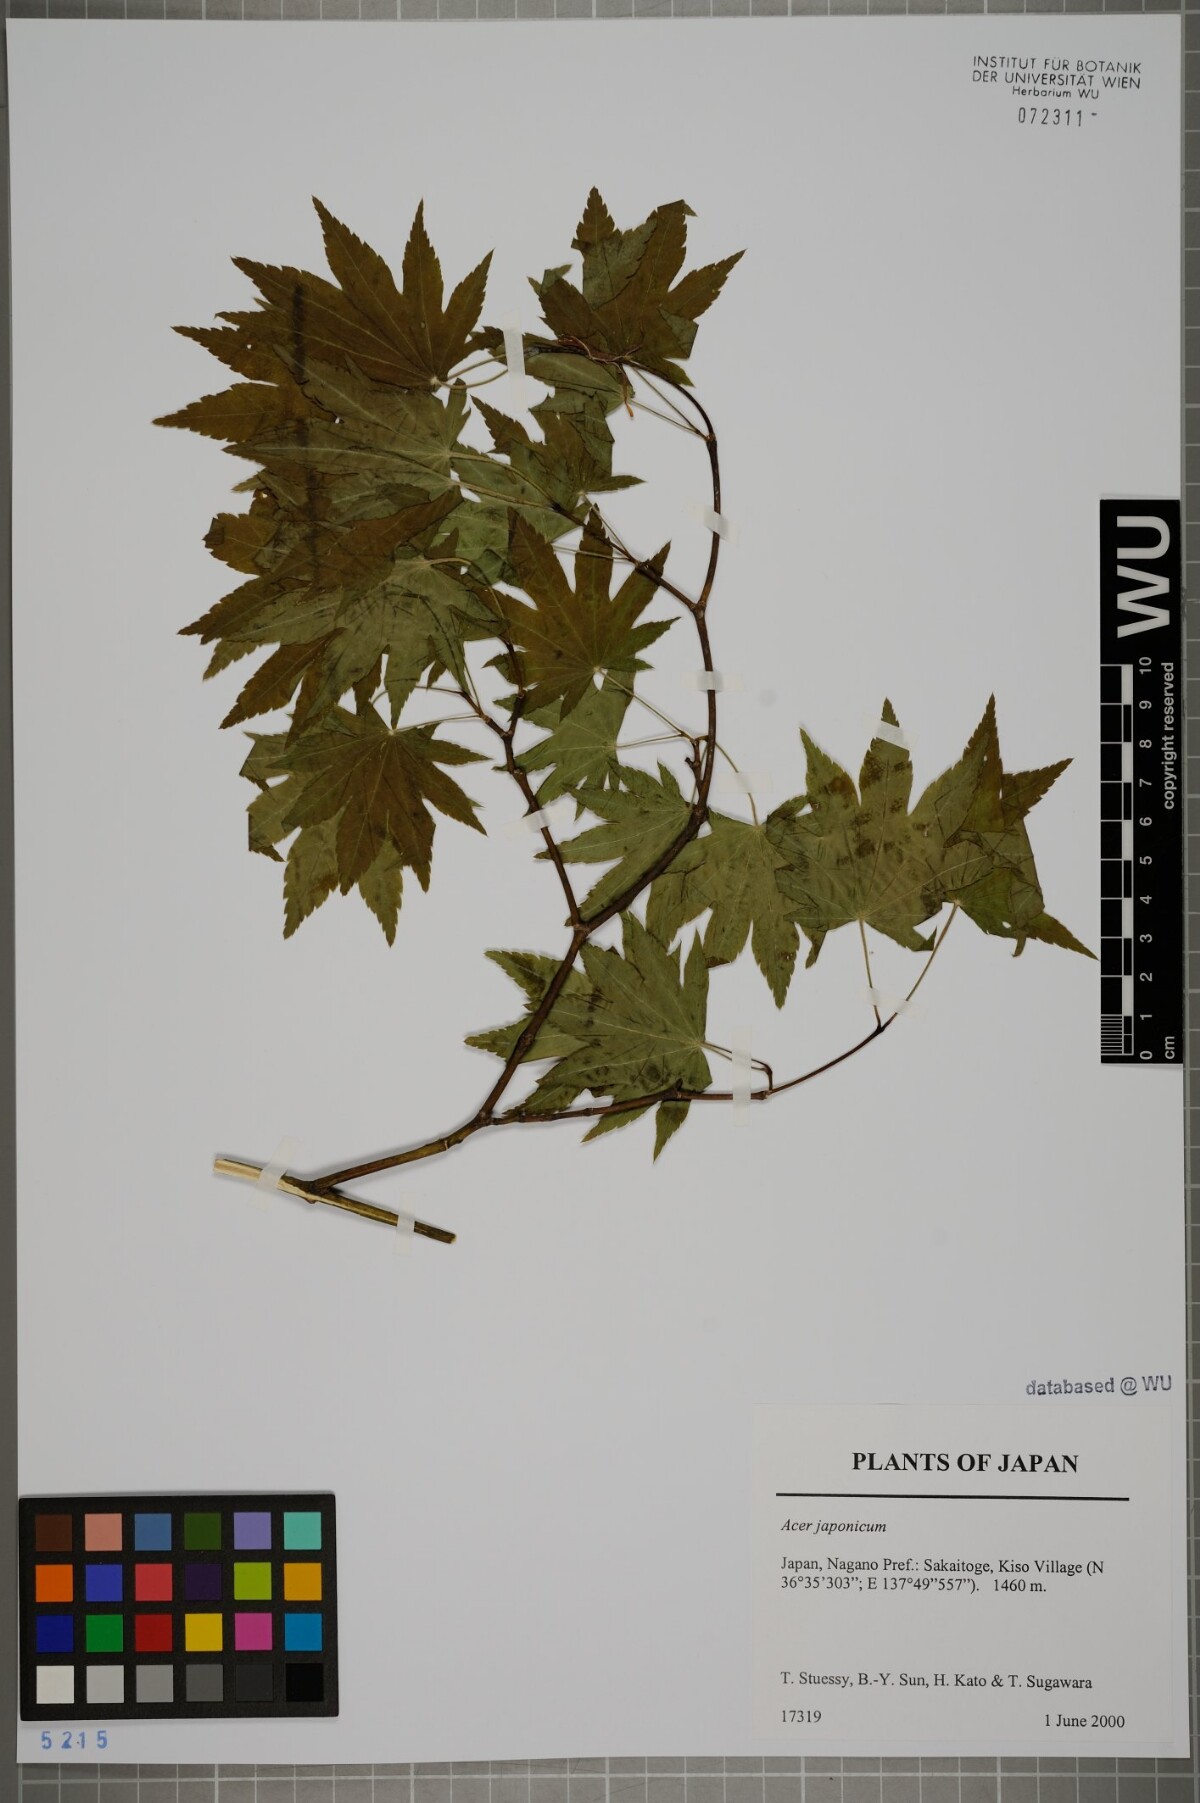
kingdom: Plantae
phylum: Tracheophyta
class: Magnoliopsida
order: Sapindales
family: Sapindaceae
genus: Acer
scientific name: Acer japonicum
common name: Amur maple
